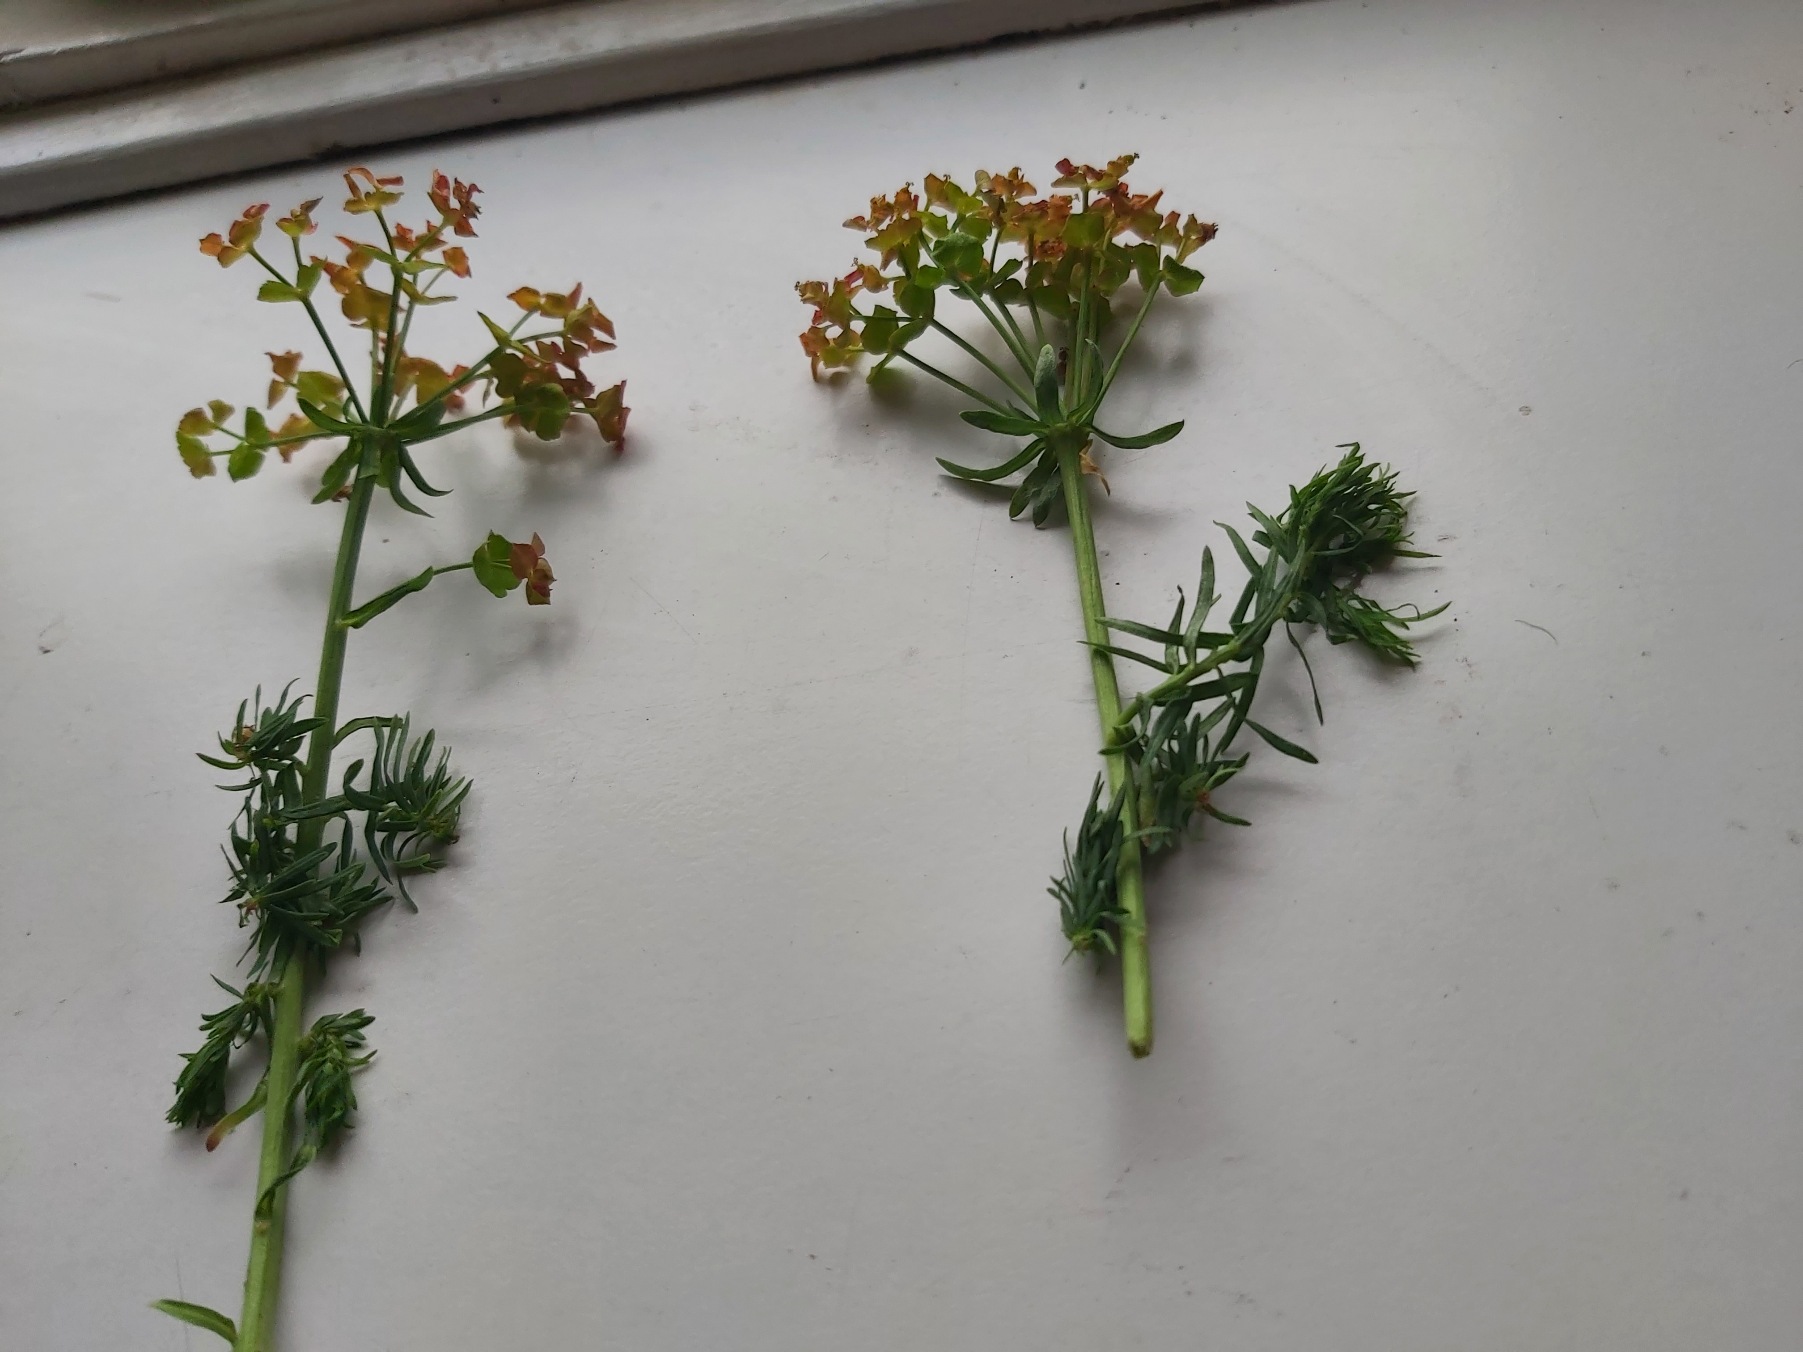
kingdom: Plantae
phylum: Tracheophyta
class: Magnoliopsida
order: Malpighiales
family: Euphorbiaceae
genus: Euphorbia
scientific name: Euphorbia cyparissias
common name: Cypres-vortemælk
